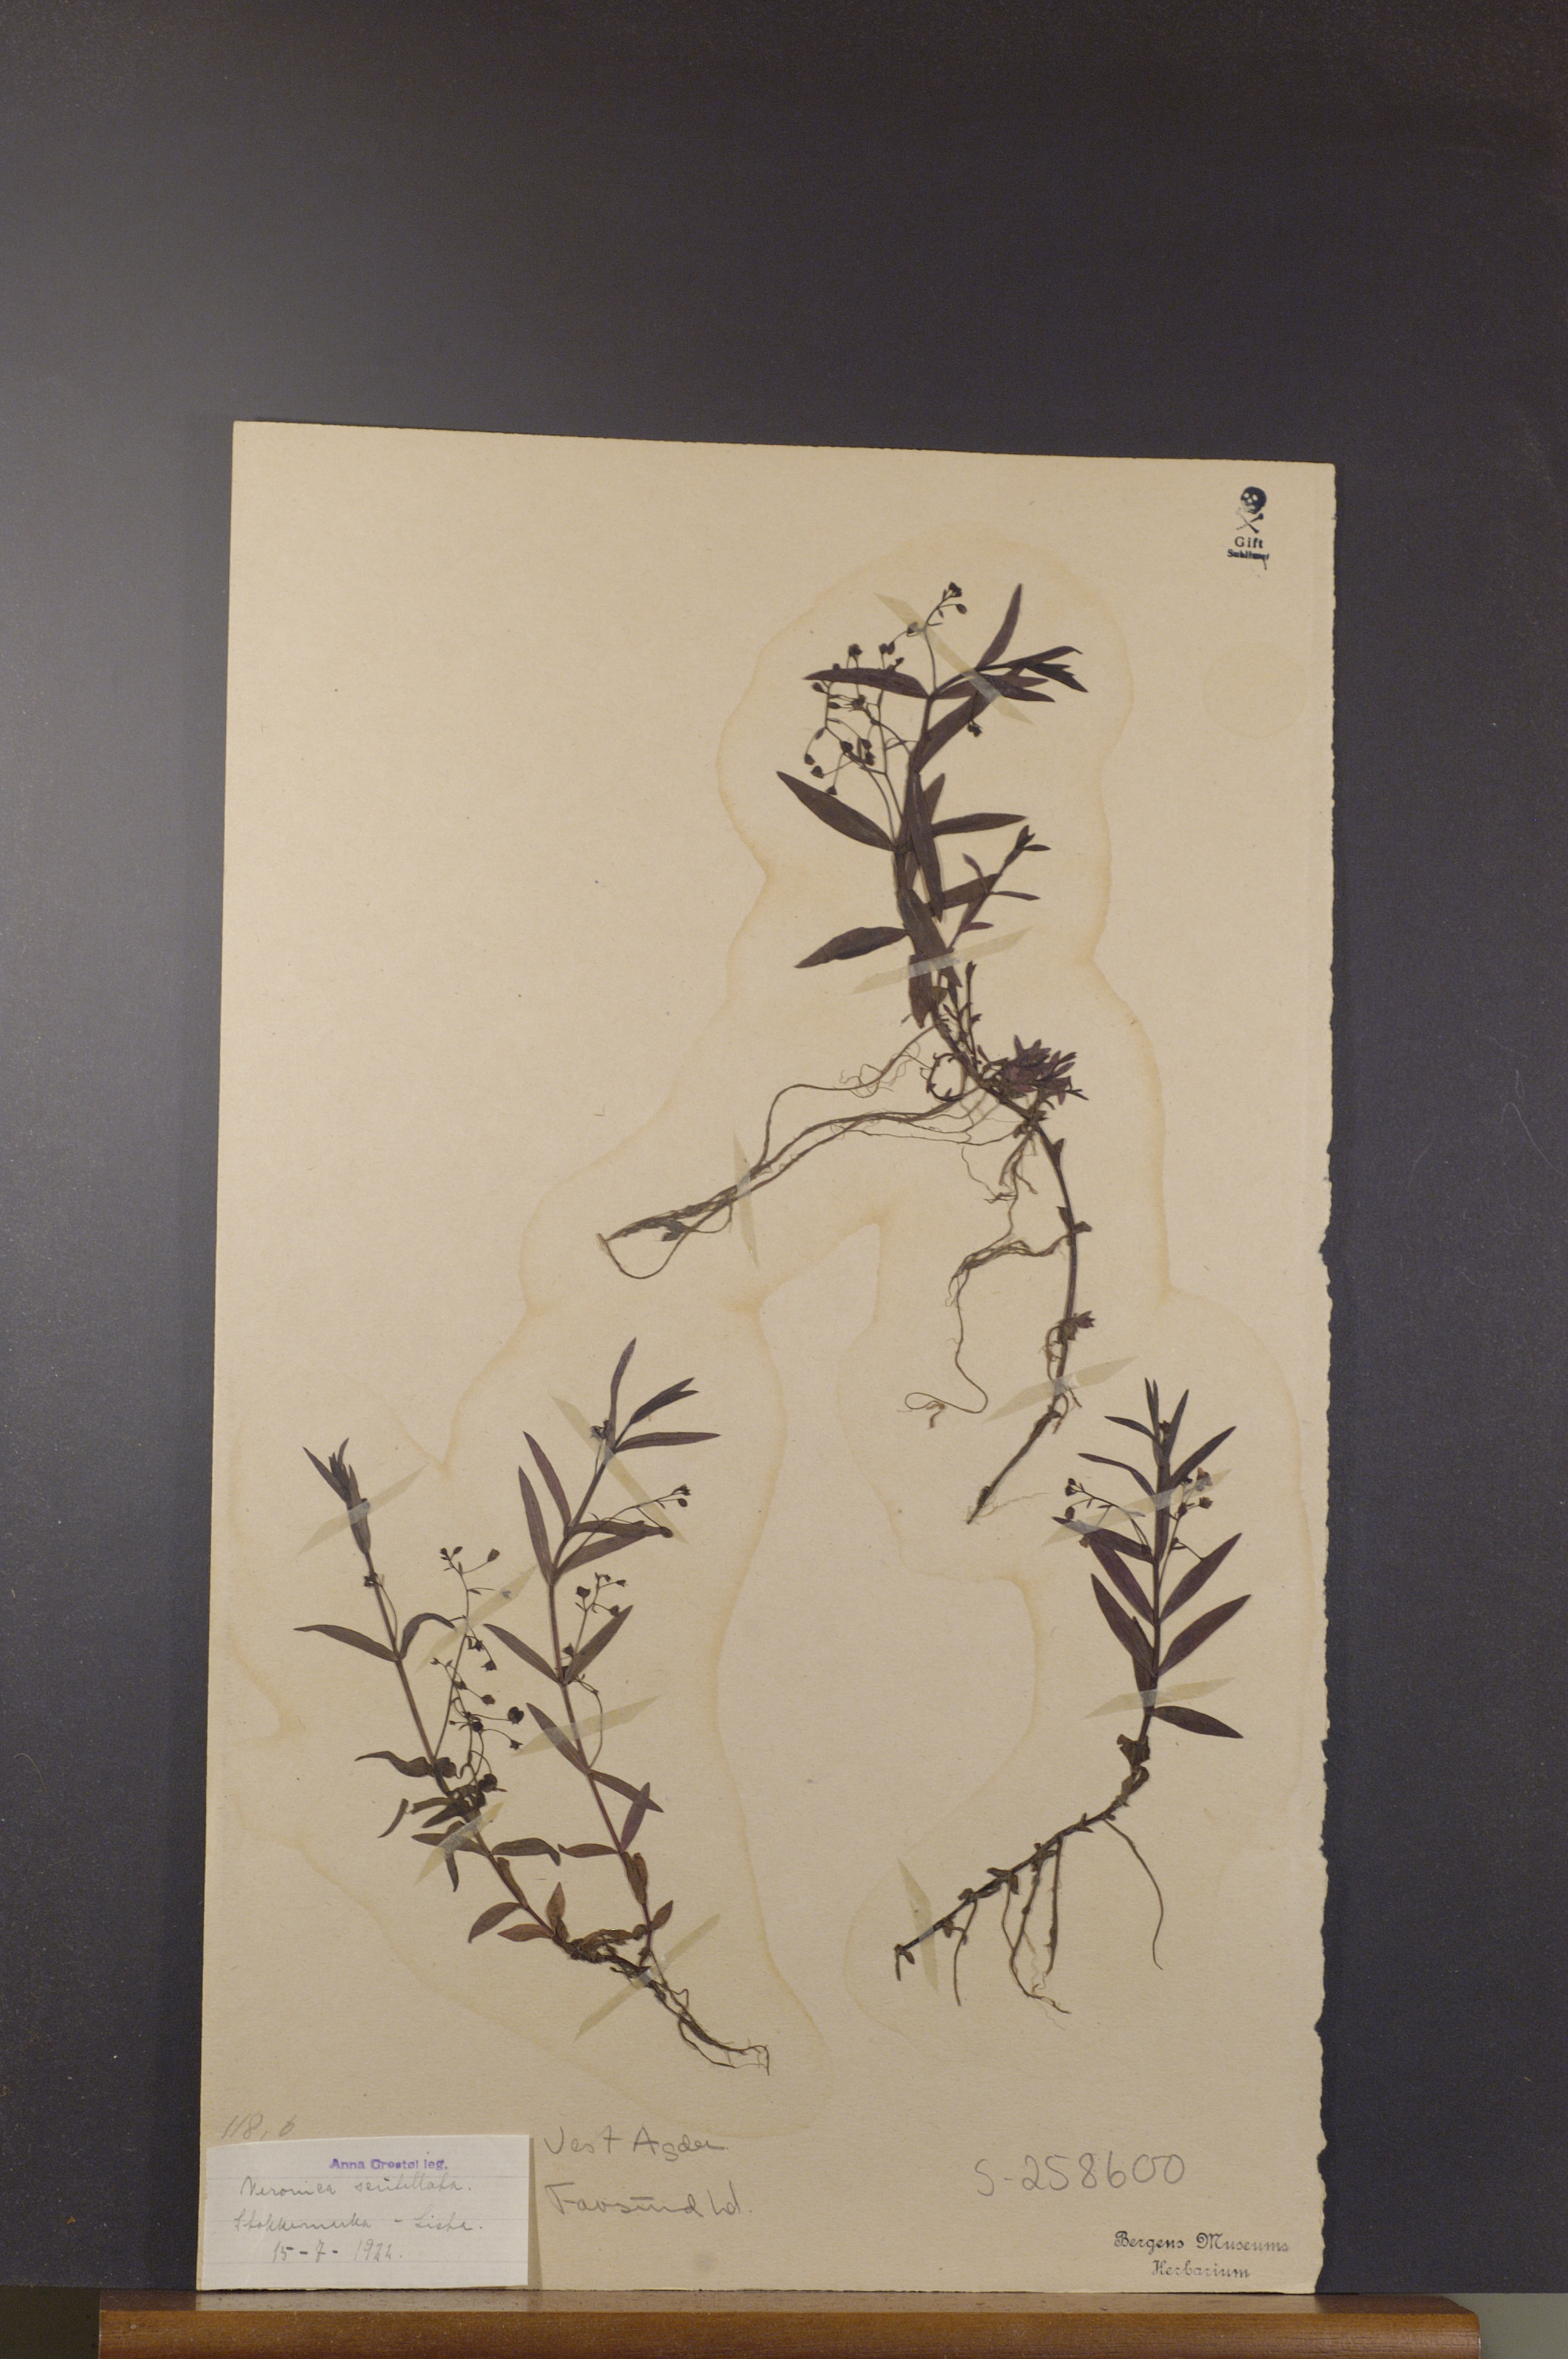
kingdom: Plantae
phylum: Tracheophyta
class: Magnoliopsida
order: Lamiales
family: Plantaginaceae
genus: Veronica
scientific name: Veronica scutellata
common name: Marsh speedwell
